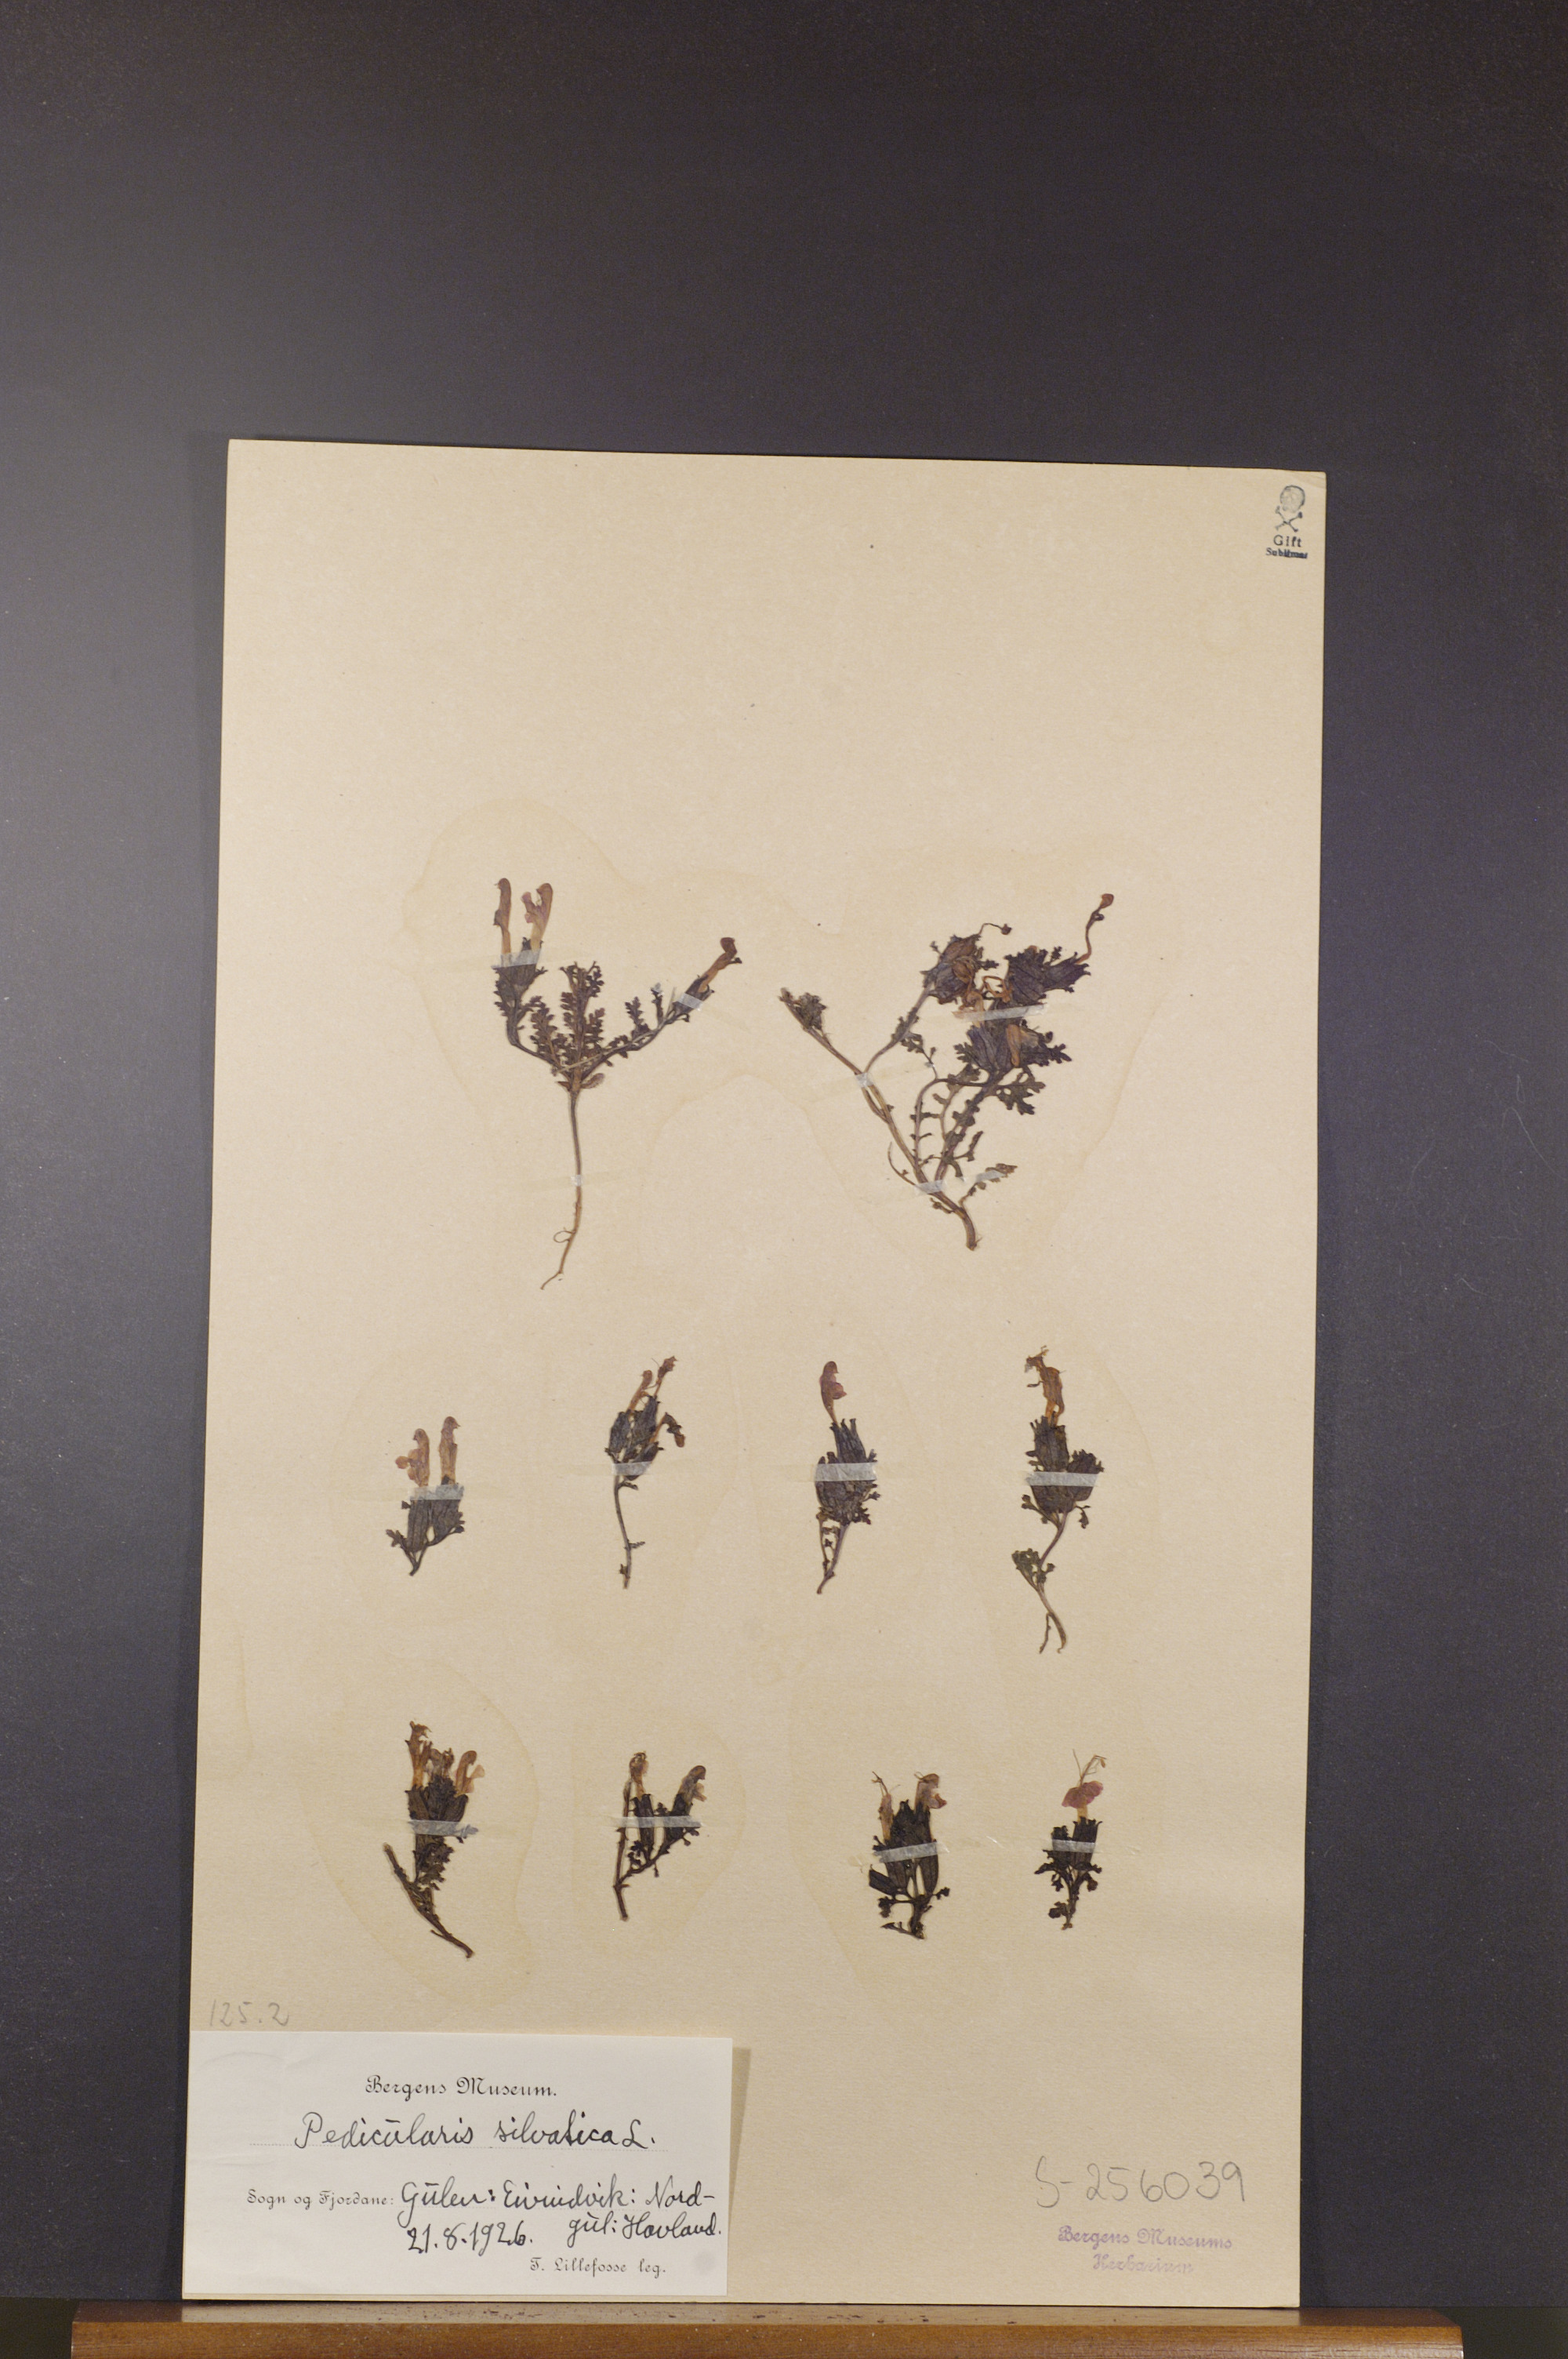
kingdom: Plantae
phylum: Tracheophyta
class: Magnoliopsida
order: Lamiales
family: Orobanchaceae
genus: Pedicularis
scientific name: Pedicularis sylvatica
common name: Lousewort
